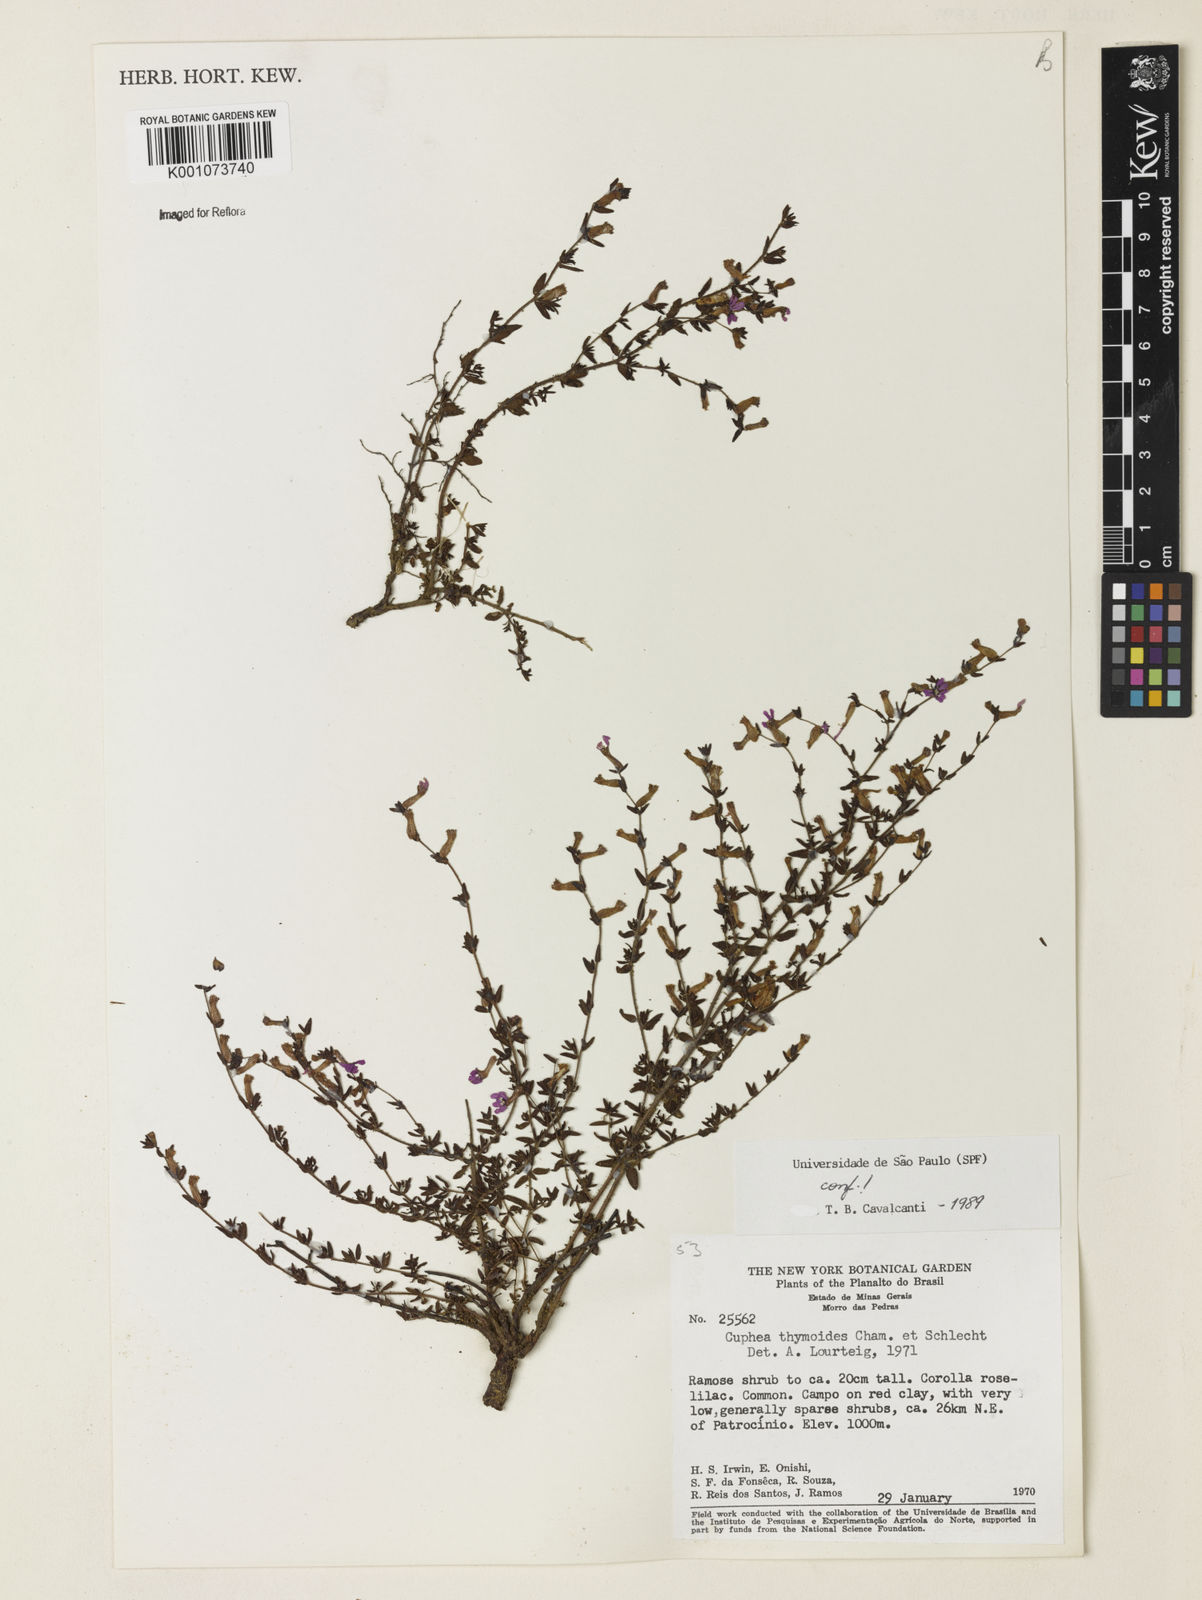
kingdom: Plantae
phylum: Tracheophyta
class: Magnoliopsida
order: Myrtales
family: Lythraceae
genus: Cuphea
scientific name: Cuphea thymoides
